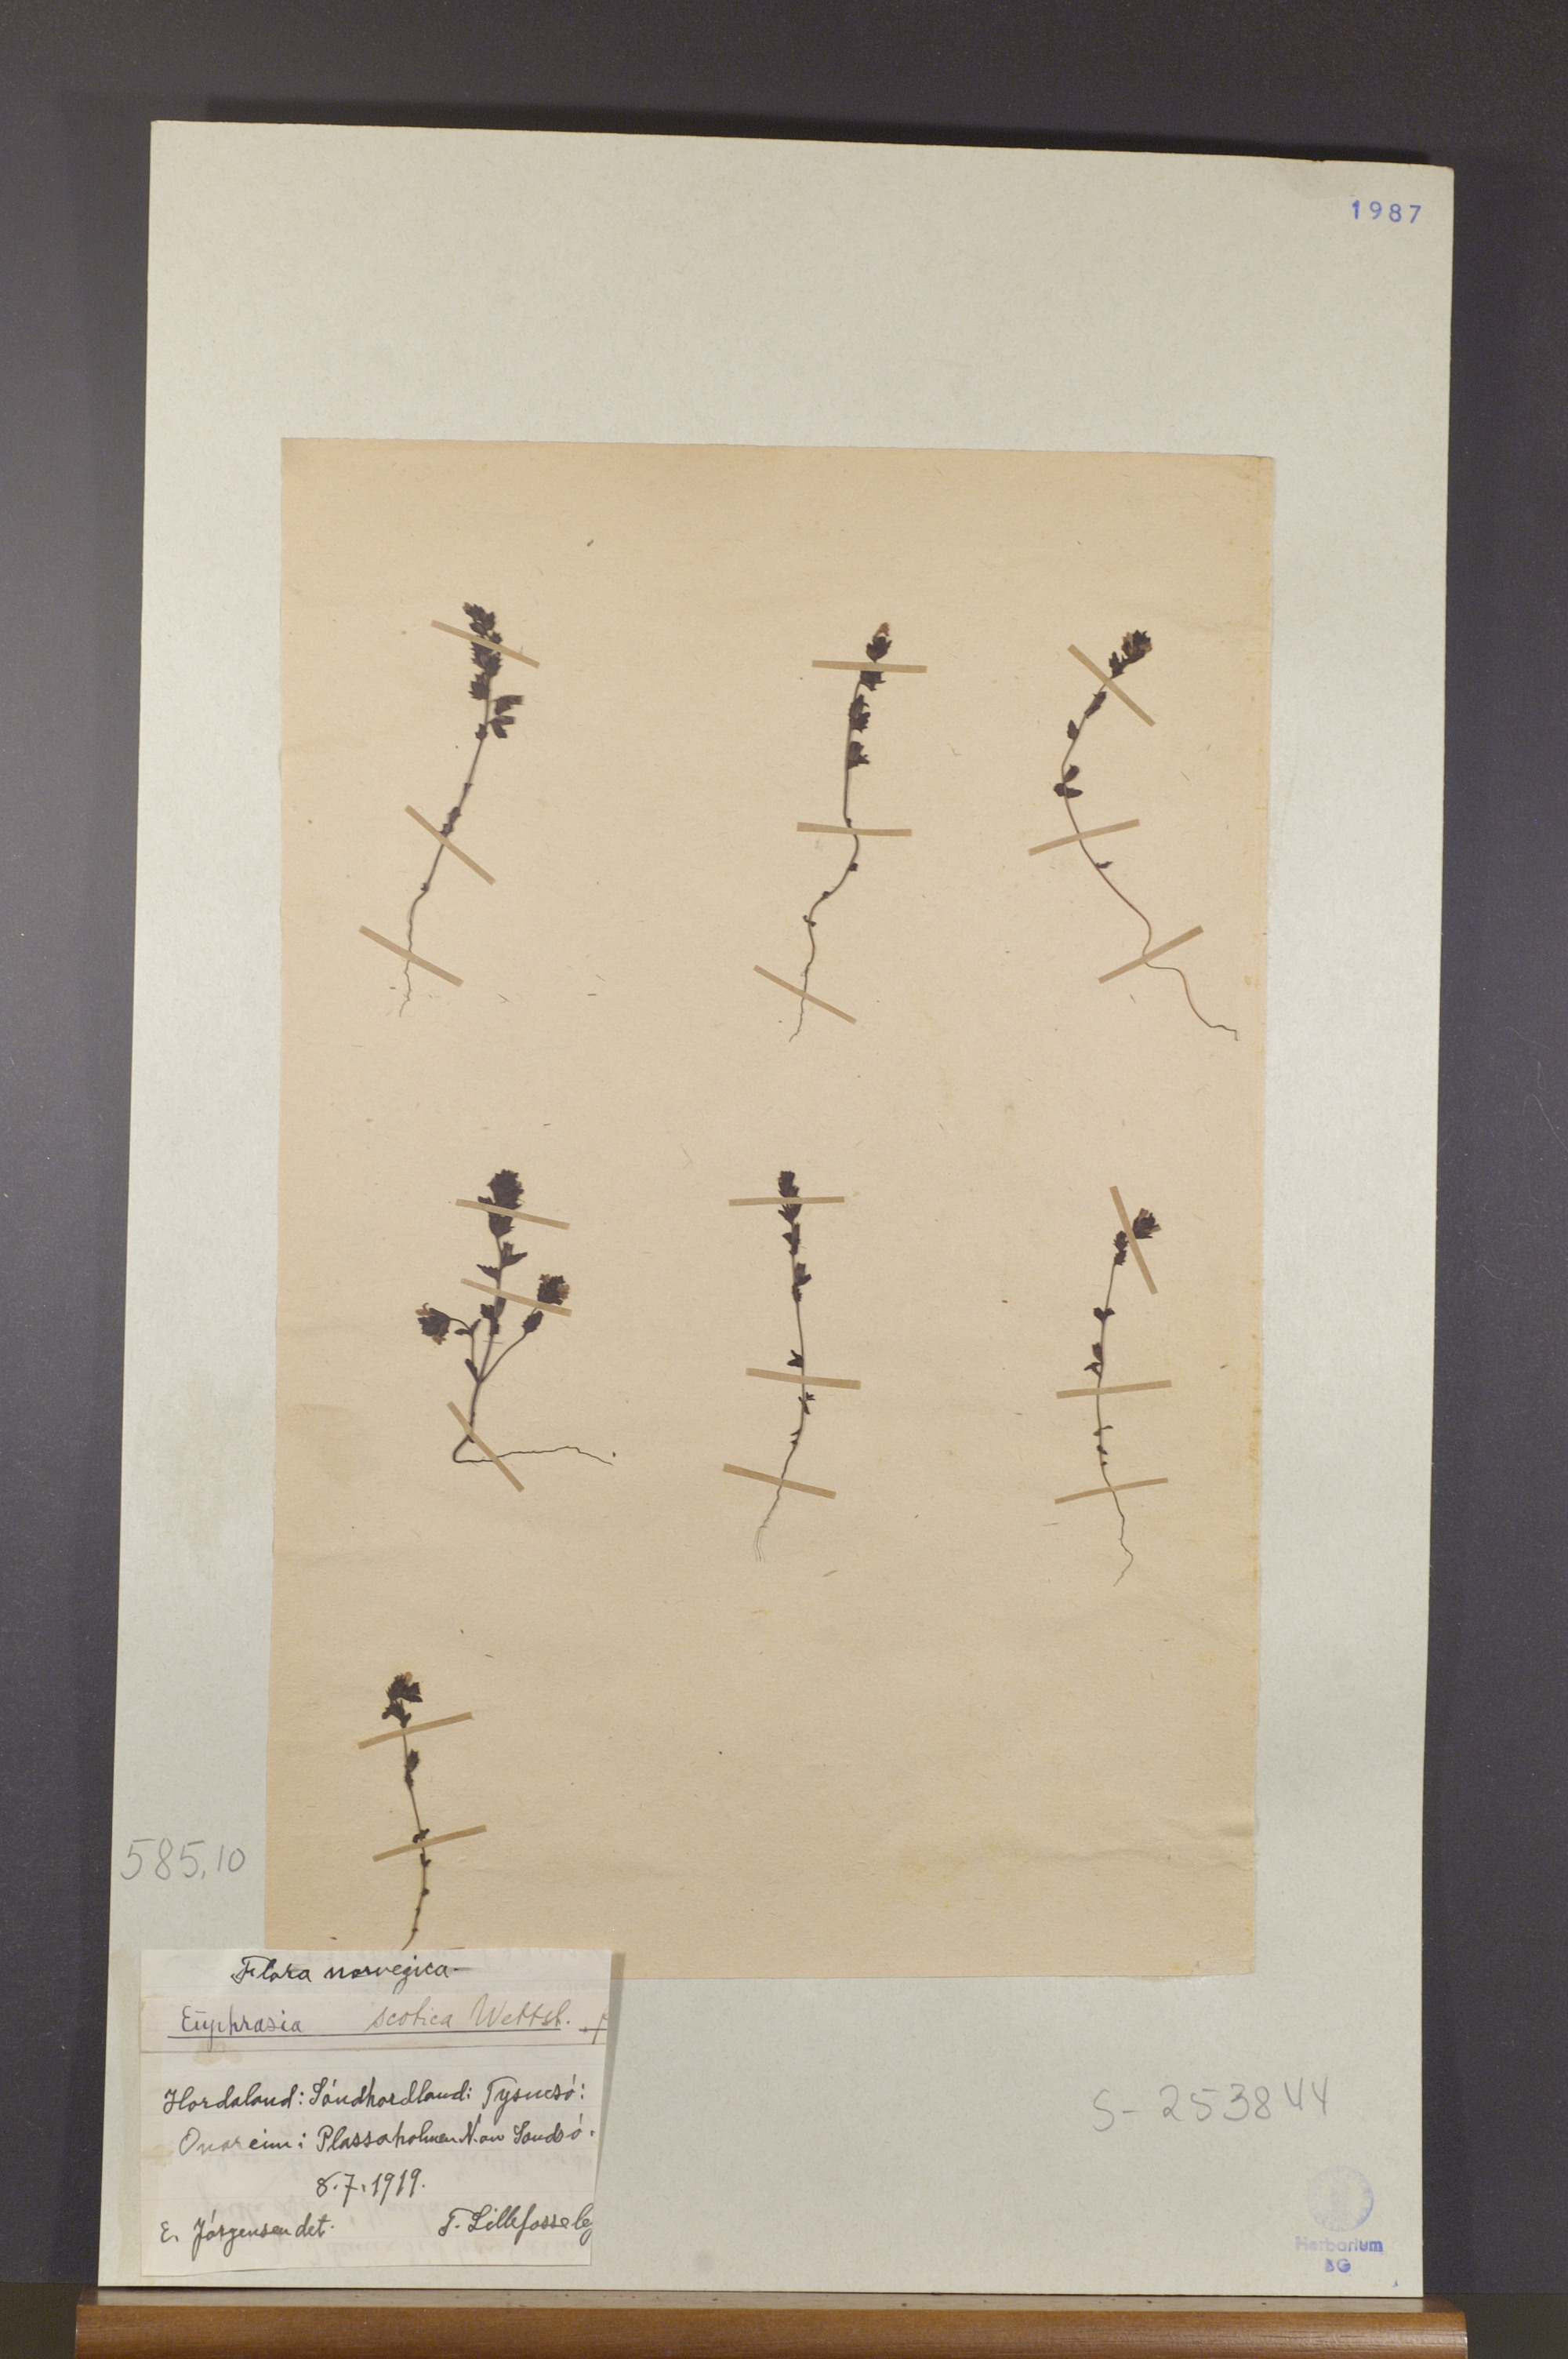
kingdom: Plantae
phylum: Tracheophyta
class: Magnoliopsida
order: Lamiales
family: Orobanchaceae
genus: Euphrasia
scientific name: Euphrasia scottica
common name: Slender scottish eyebright
